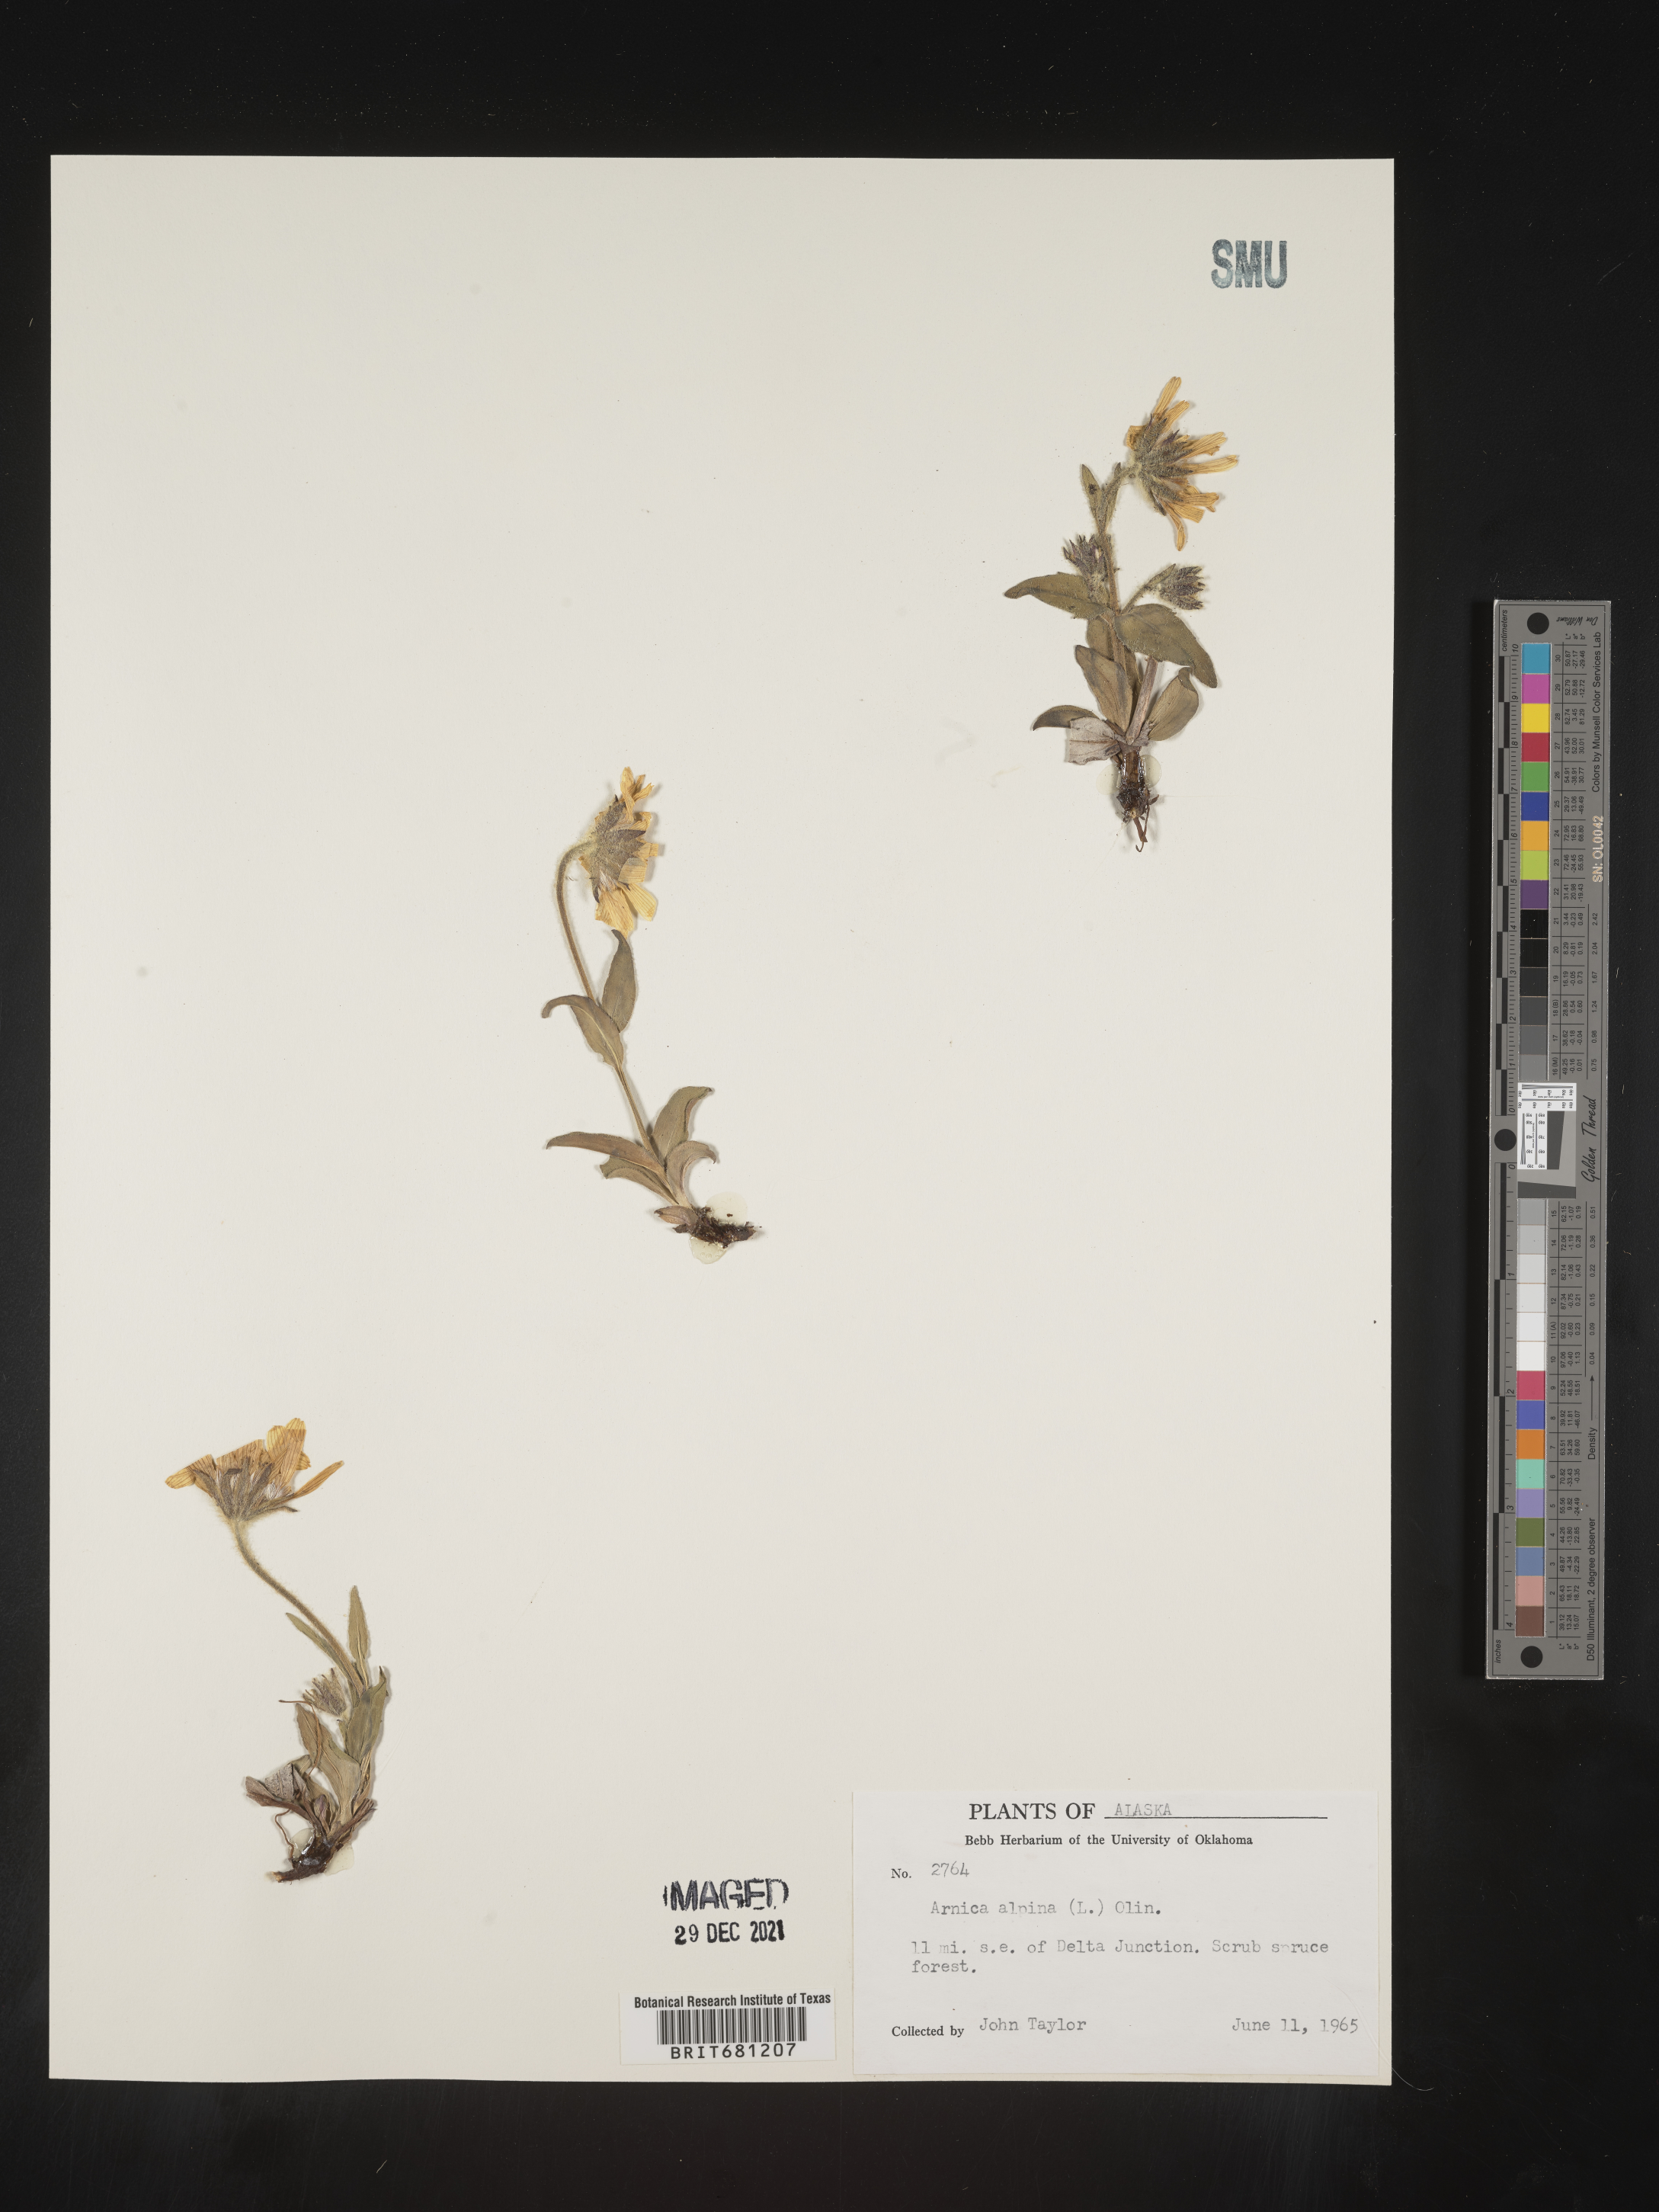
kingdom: Plantae
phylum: Tracheophyta
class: Magnoliopsida
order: Asterales
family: Asteraceae
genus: Arnica
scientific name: Arnica angustifolia
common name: Arctic arnica
